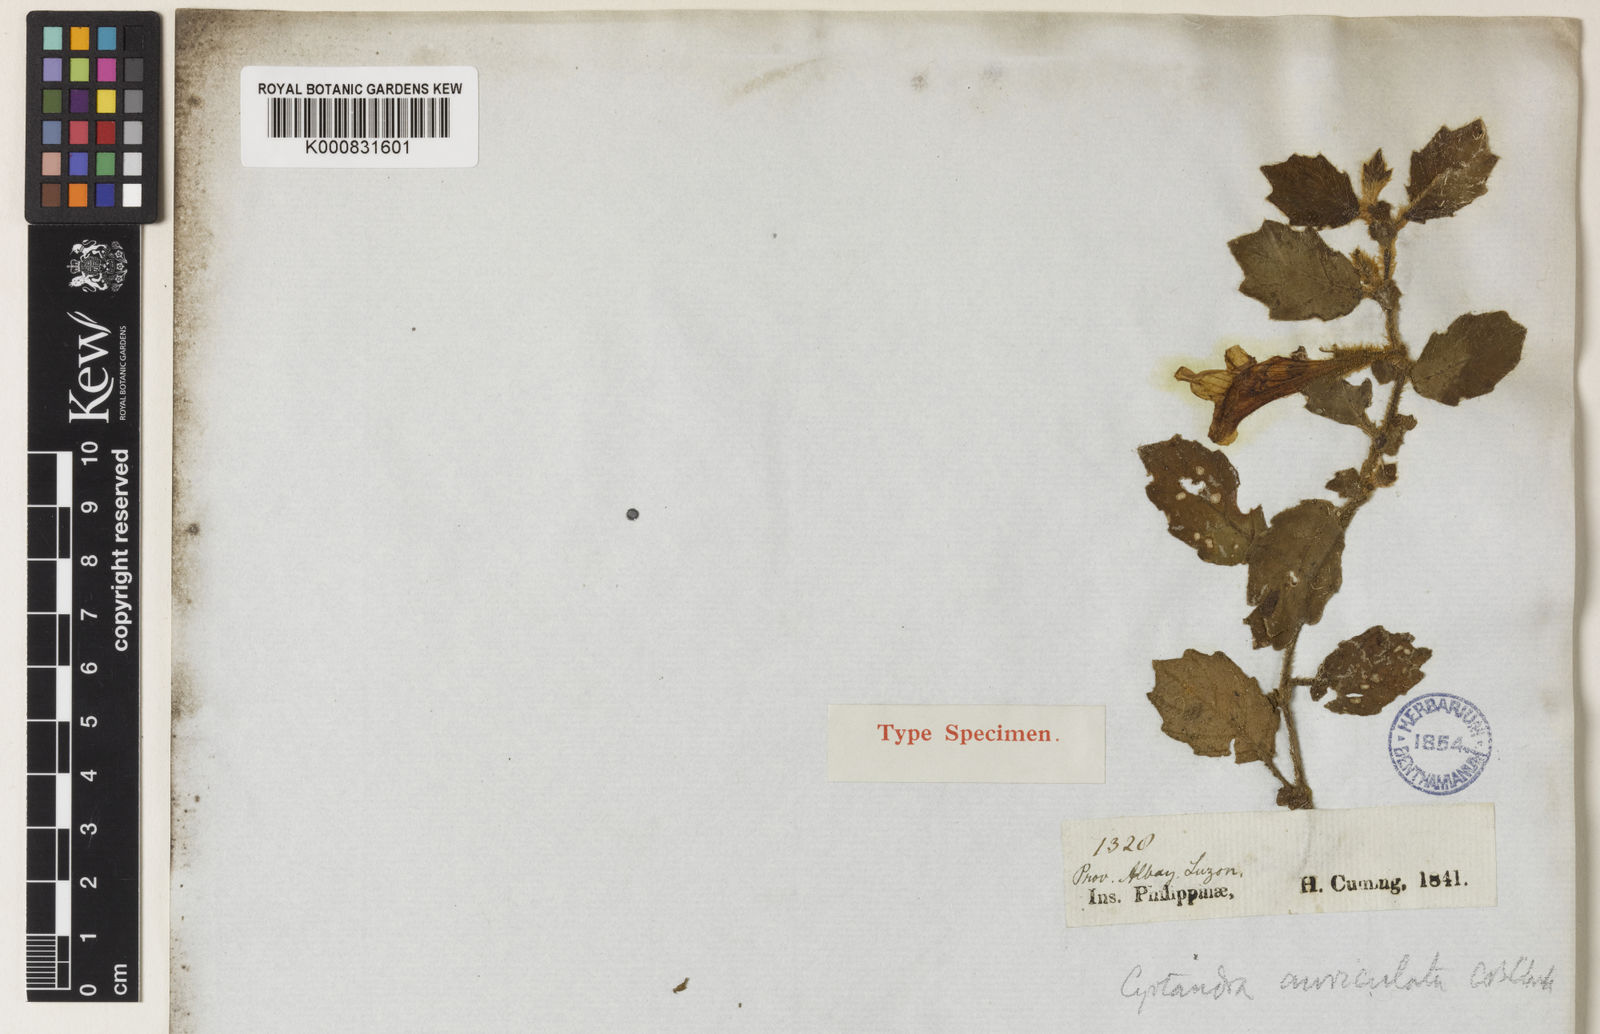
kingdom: Plantae
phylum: Tracheophyta
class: Magnoliopsida
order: Lamiales
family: Gesneriaceae
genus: Cyrtandra
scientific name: Cyrtandra auriculata
